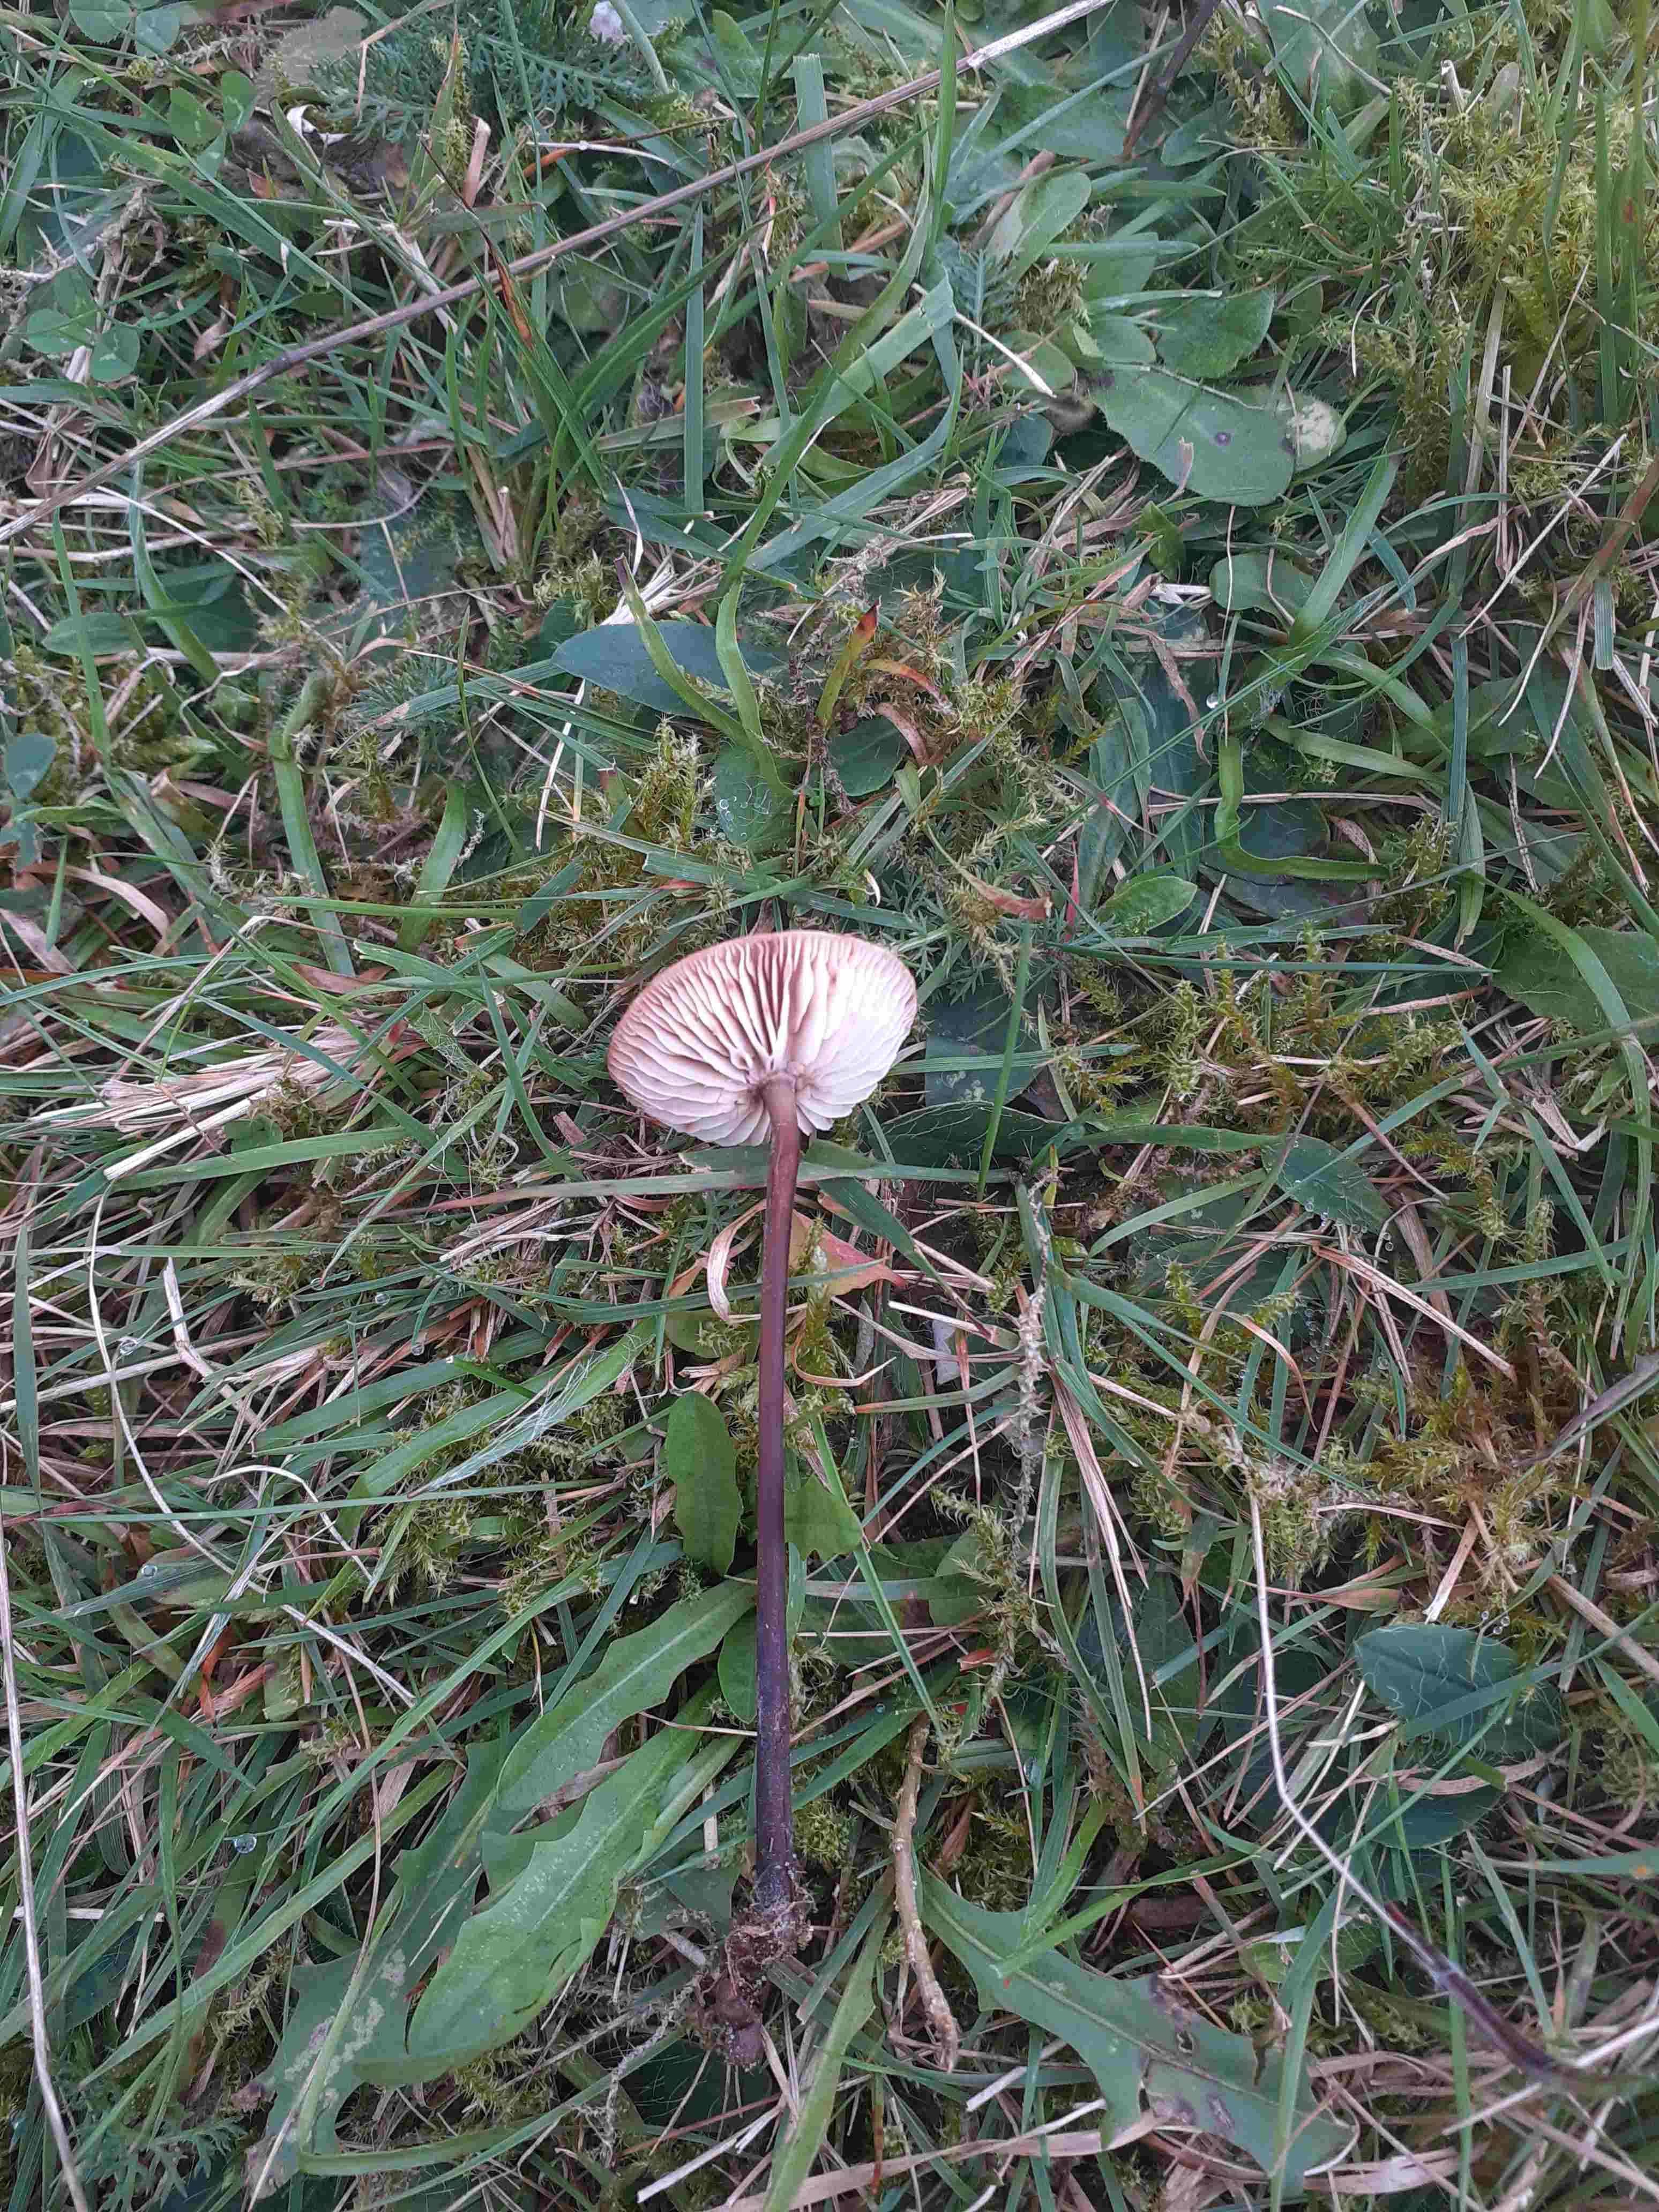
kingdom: Fungi
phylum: Basidiomycota
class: Agaricomycetes
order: Agaricales
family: Omphalotaceae
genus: Mycetinis
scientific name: Mycetinis scorodonius
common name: lille løghat
